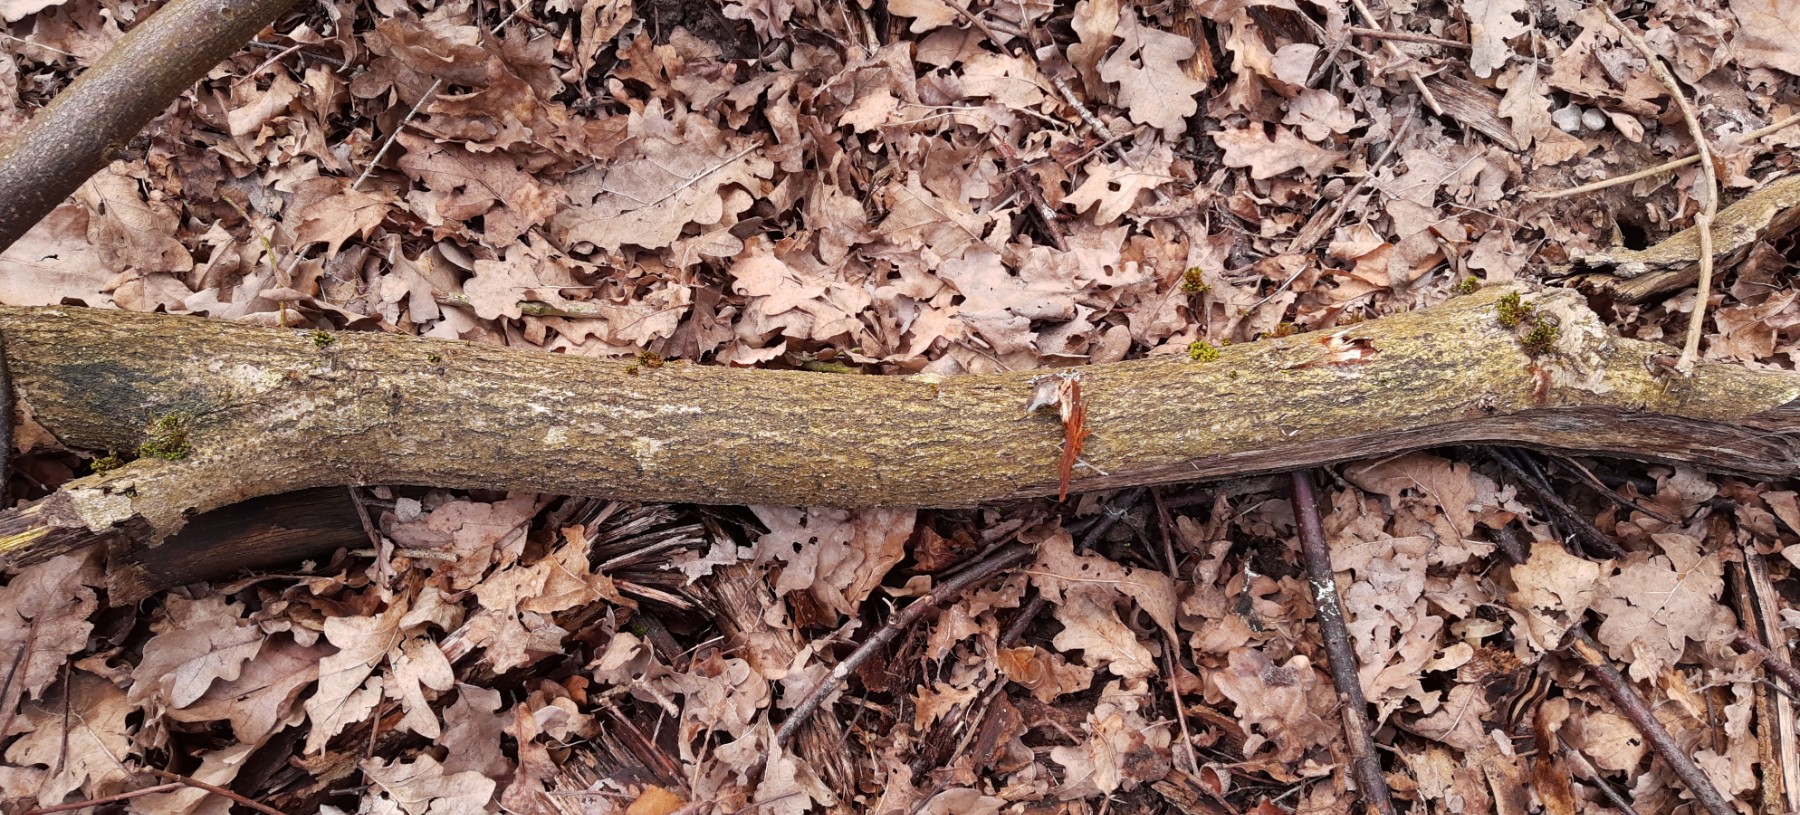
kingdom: Fungi
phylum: Basidiomycota
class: Agaricomycetes
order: Polyporales
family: Polyporaceae
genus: Lentinus
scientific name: Lentinus brumalis
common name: vinter-stilkporesvamp
